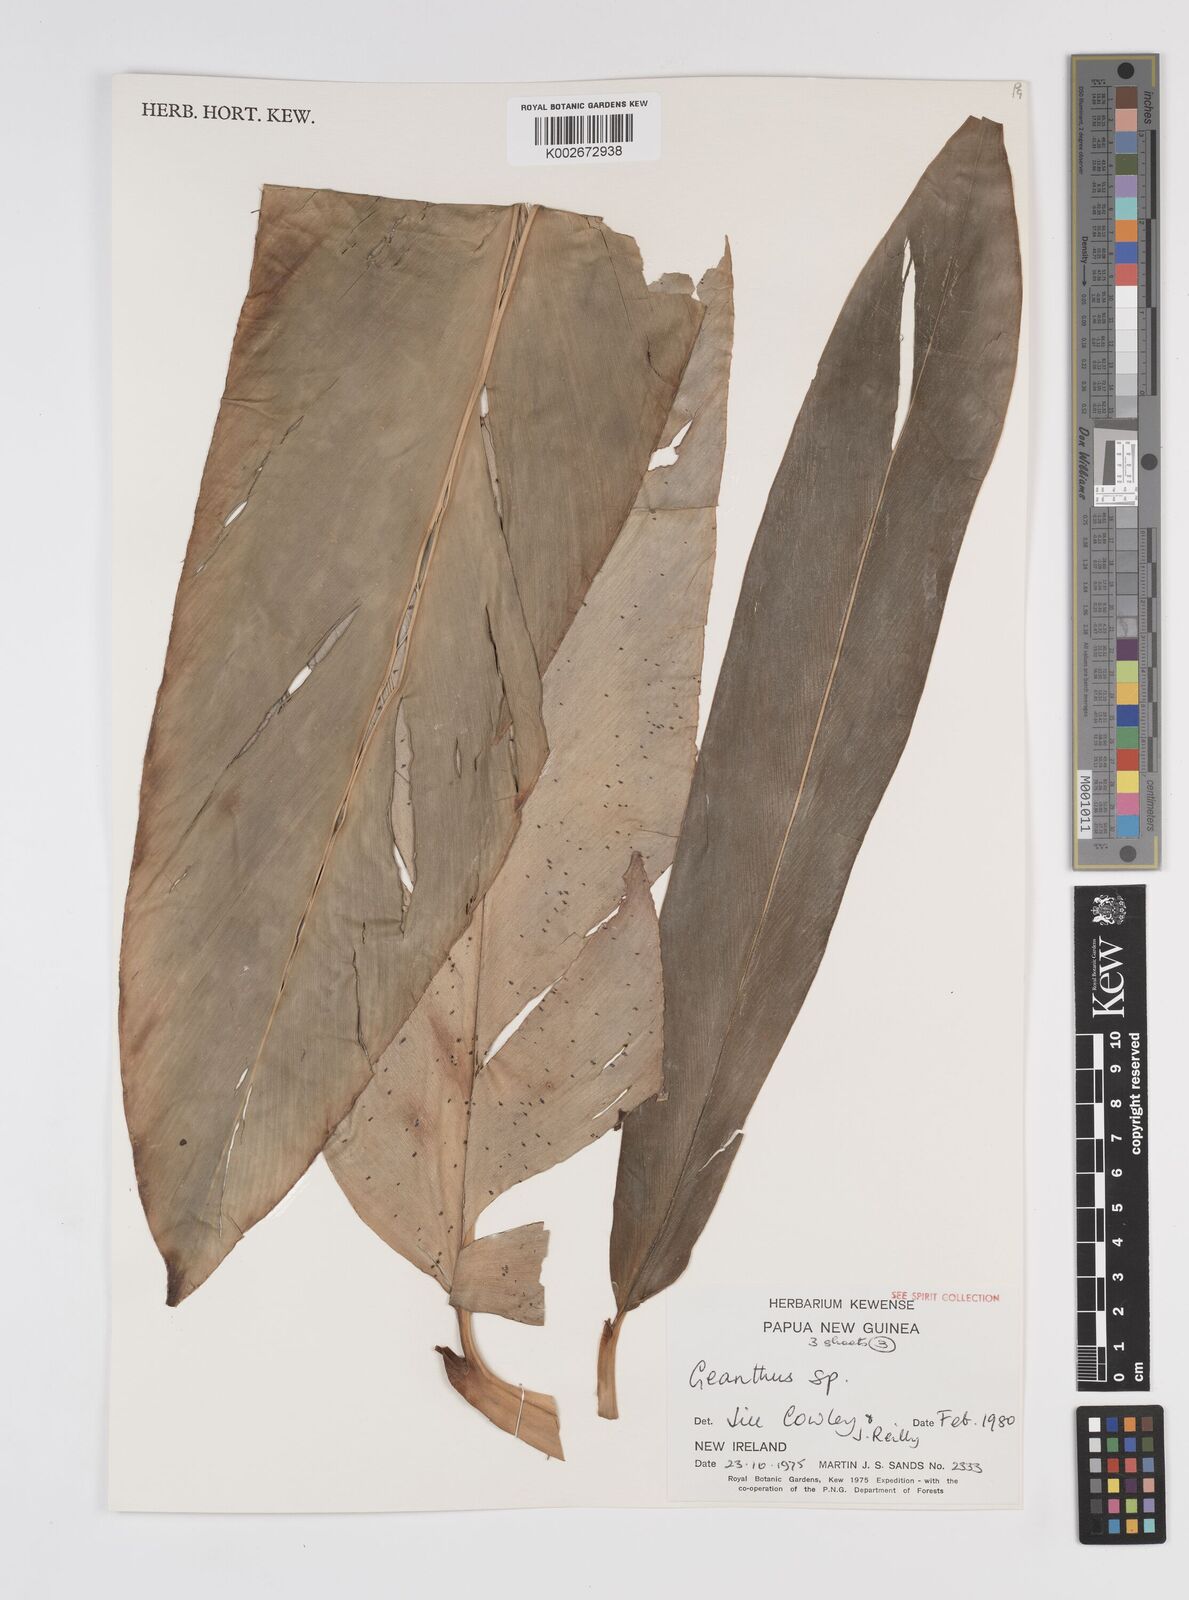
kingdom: Plantae
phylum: Tracheophyta
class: Liliopsida
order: Zingiberales
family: Zingiberaceae
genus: Etlingera
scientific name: Etlingera
